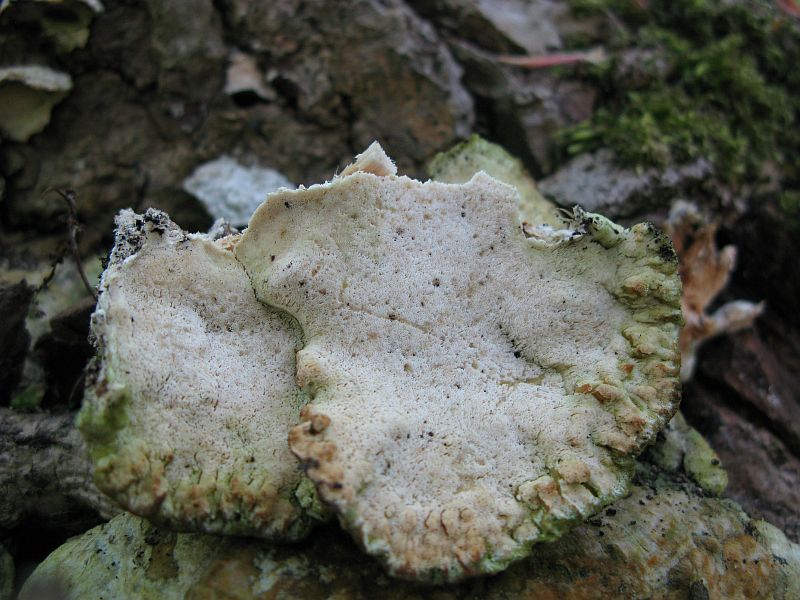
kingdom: Fungi
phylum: Basidiomycota
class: Agaricomycetes
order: Hymenochaetales
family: Oxyporaceae
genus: Oxyporus
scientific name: Oxyporus populinus
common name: sammenvokset trylleporesvamp
